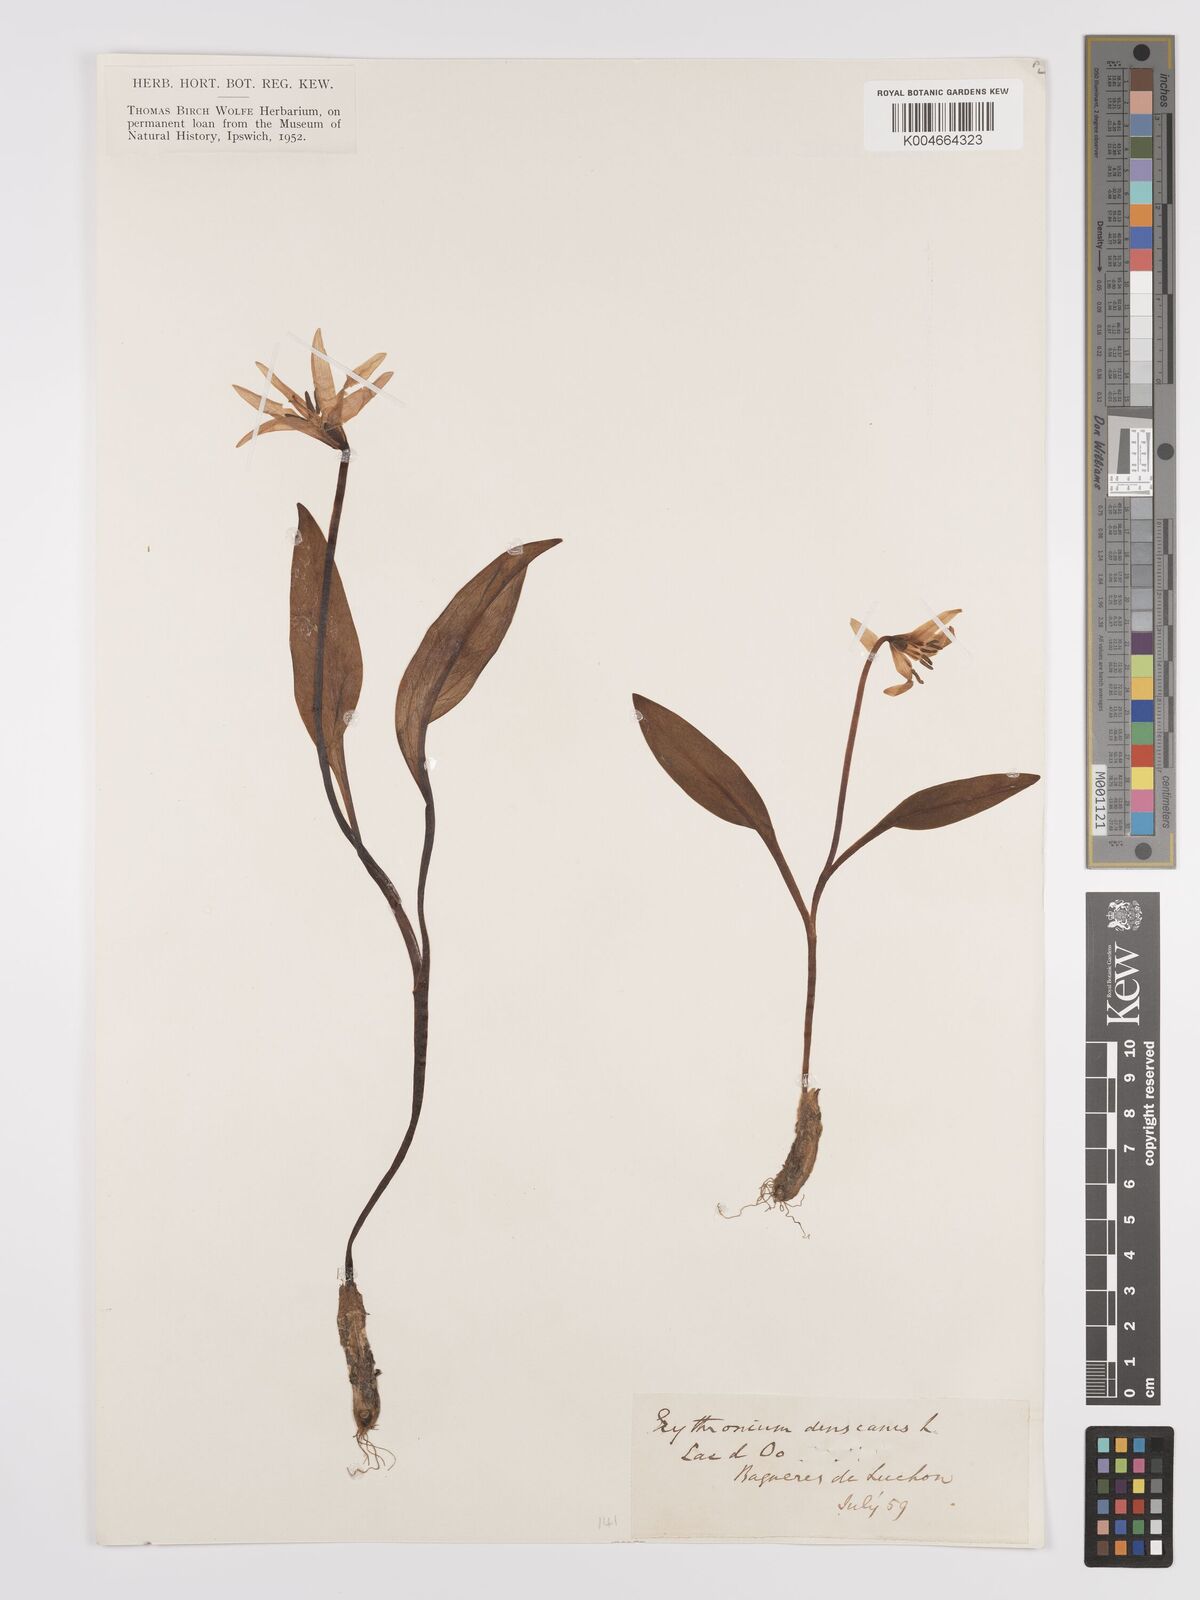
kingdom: Plantae
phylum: Tracheophyta
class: Liliopsida
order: Liliales
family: Liliaceae
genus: Erythronium
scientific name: Erythronium dens-canis
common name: Dog's-tooth-violet
